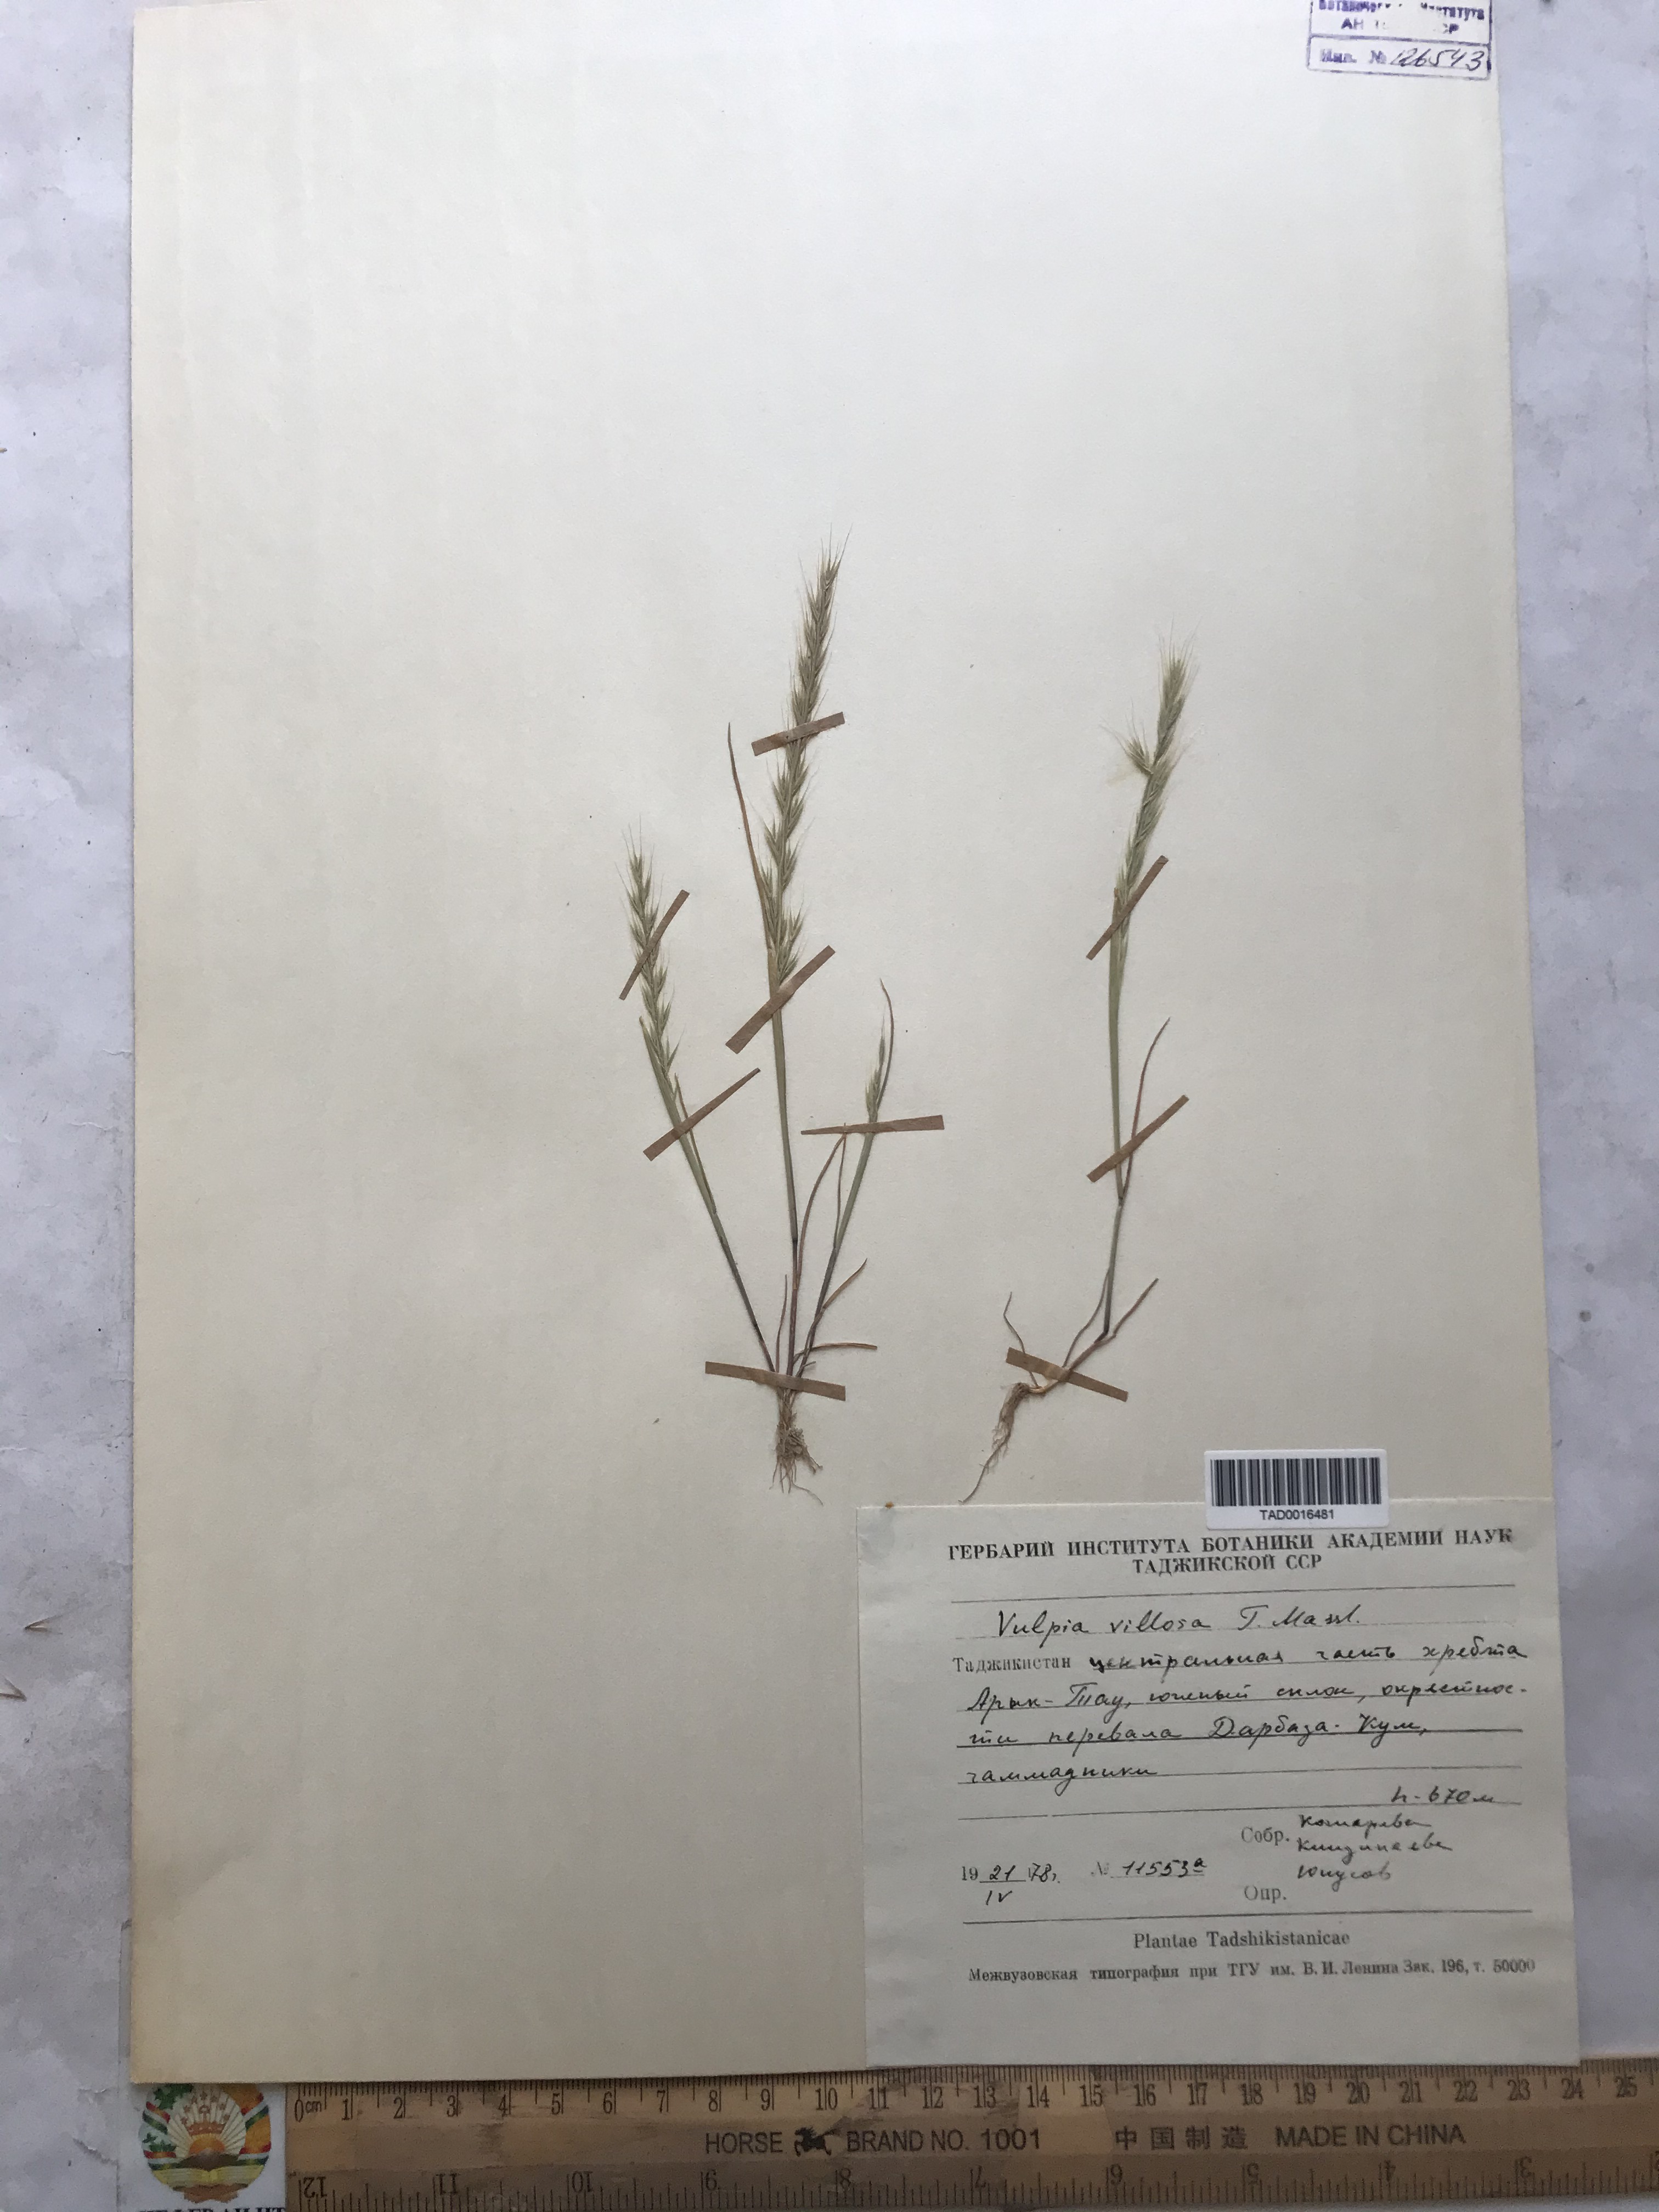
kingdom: Plantae
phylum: Tracheophyta
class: Liliopsida
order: Poales
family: Poaceae
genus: Festuca
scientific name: Festuca Vulpia persica
